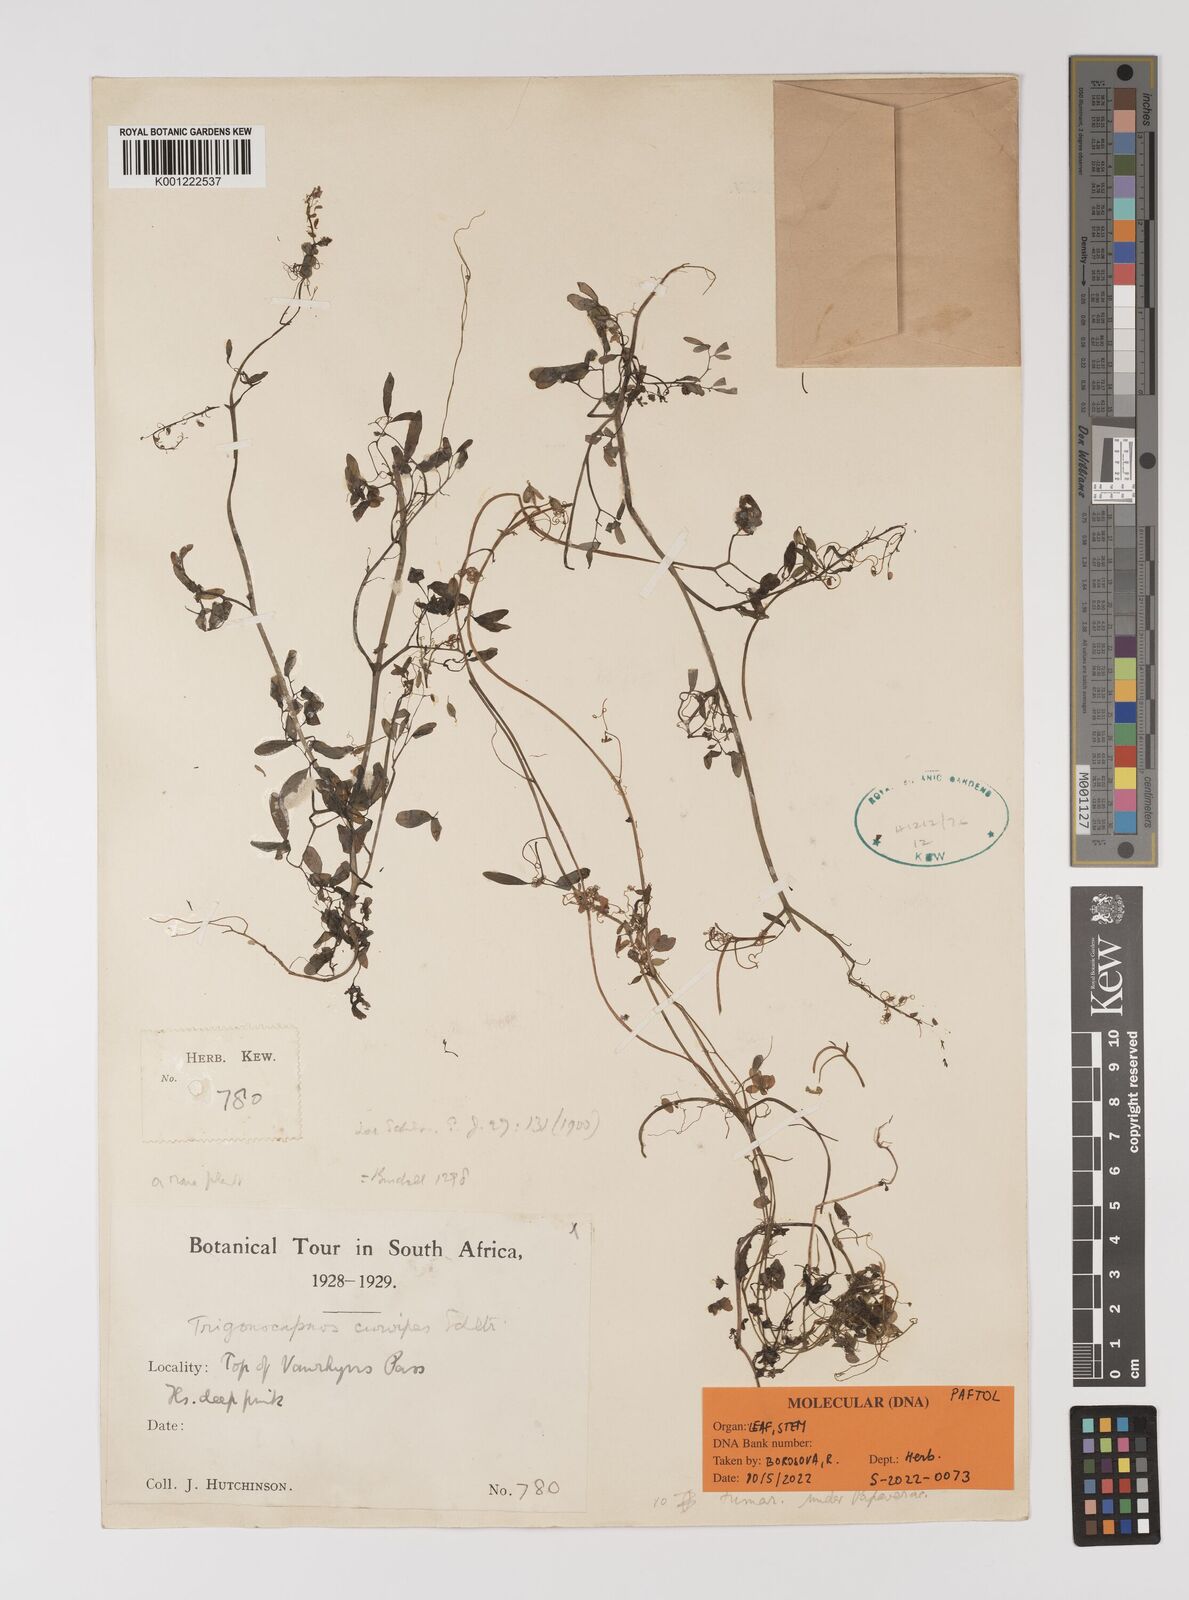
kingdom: Plantae
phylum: Tracheophyta
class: Magnoliopsida
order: Ranunculales
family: Papaveraceae
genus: Trigonocapnos
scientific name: Trigonocapnos lichtensteinii
